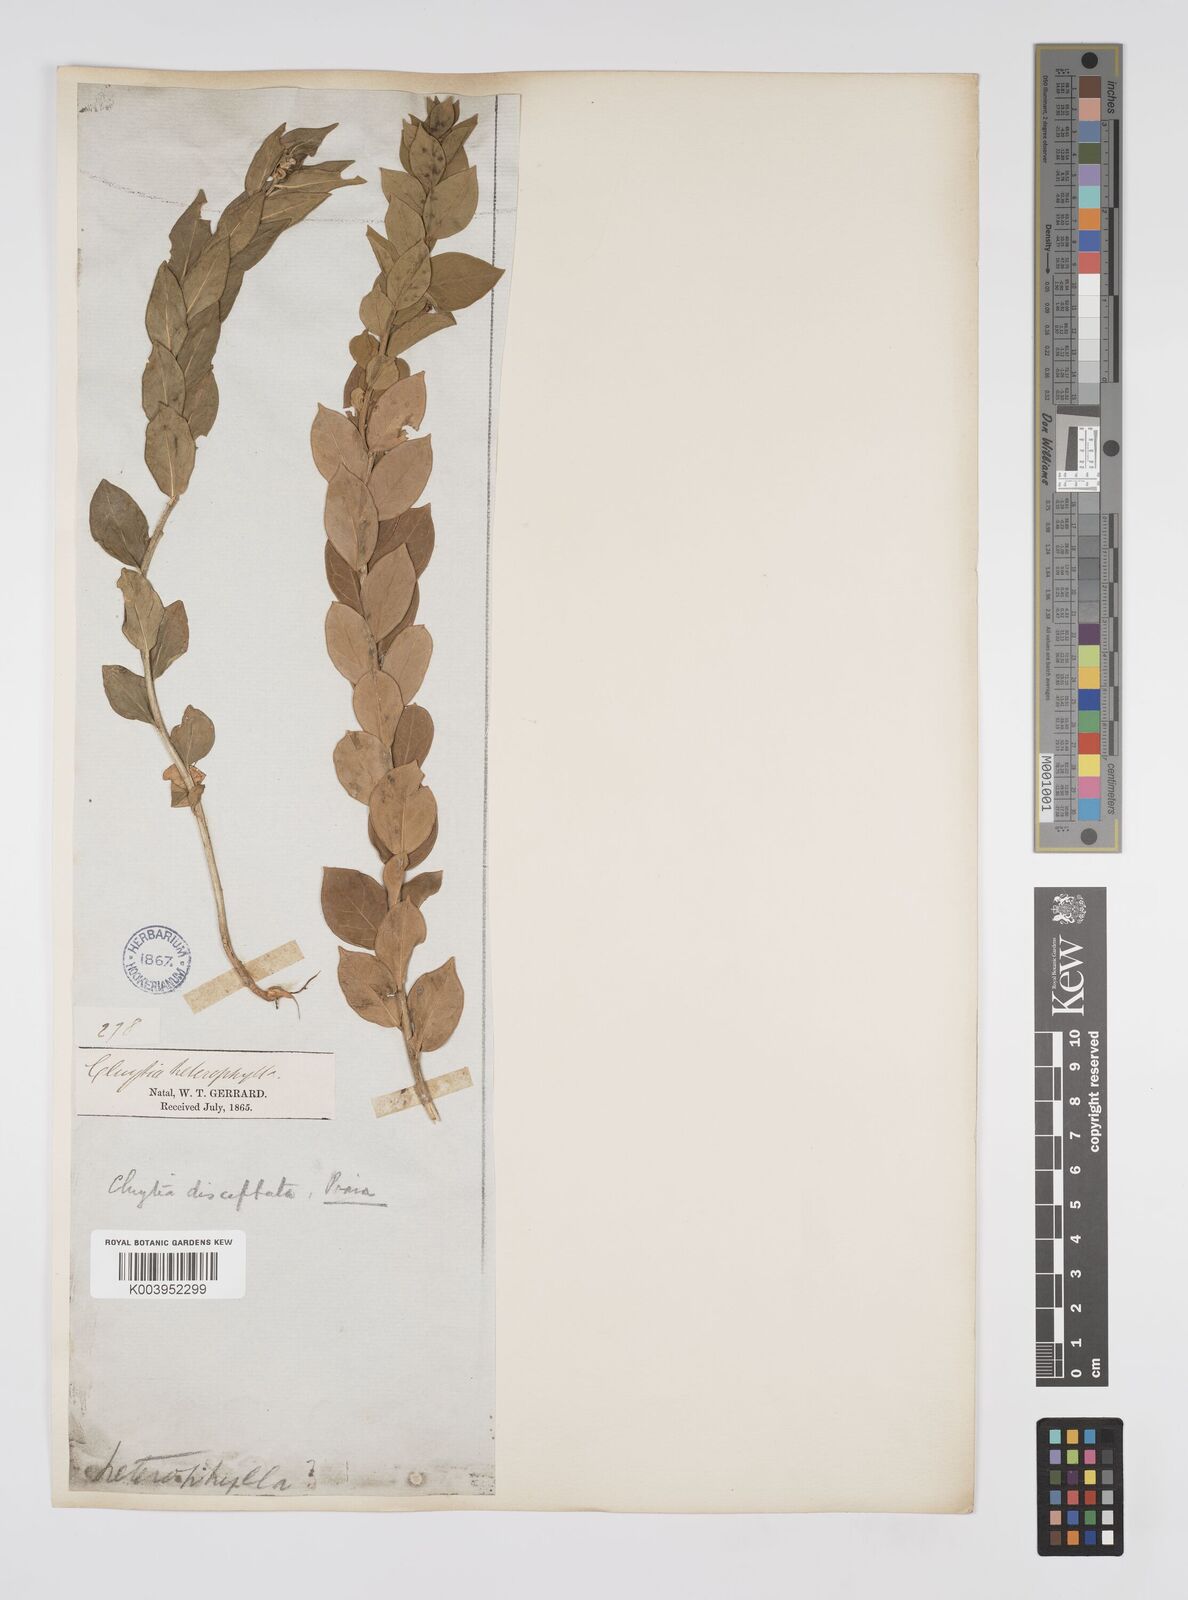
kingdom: Plantae
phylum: Tracheophyta
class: Magnoliopsida
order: Malpighiales
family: Peraceae
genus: Clutia
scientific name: Clutia disceptata
